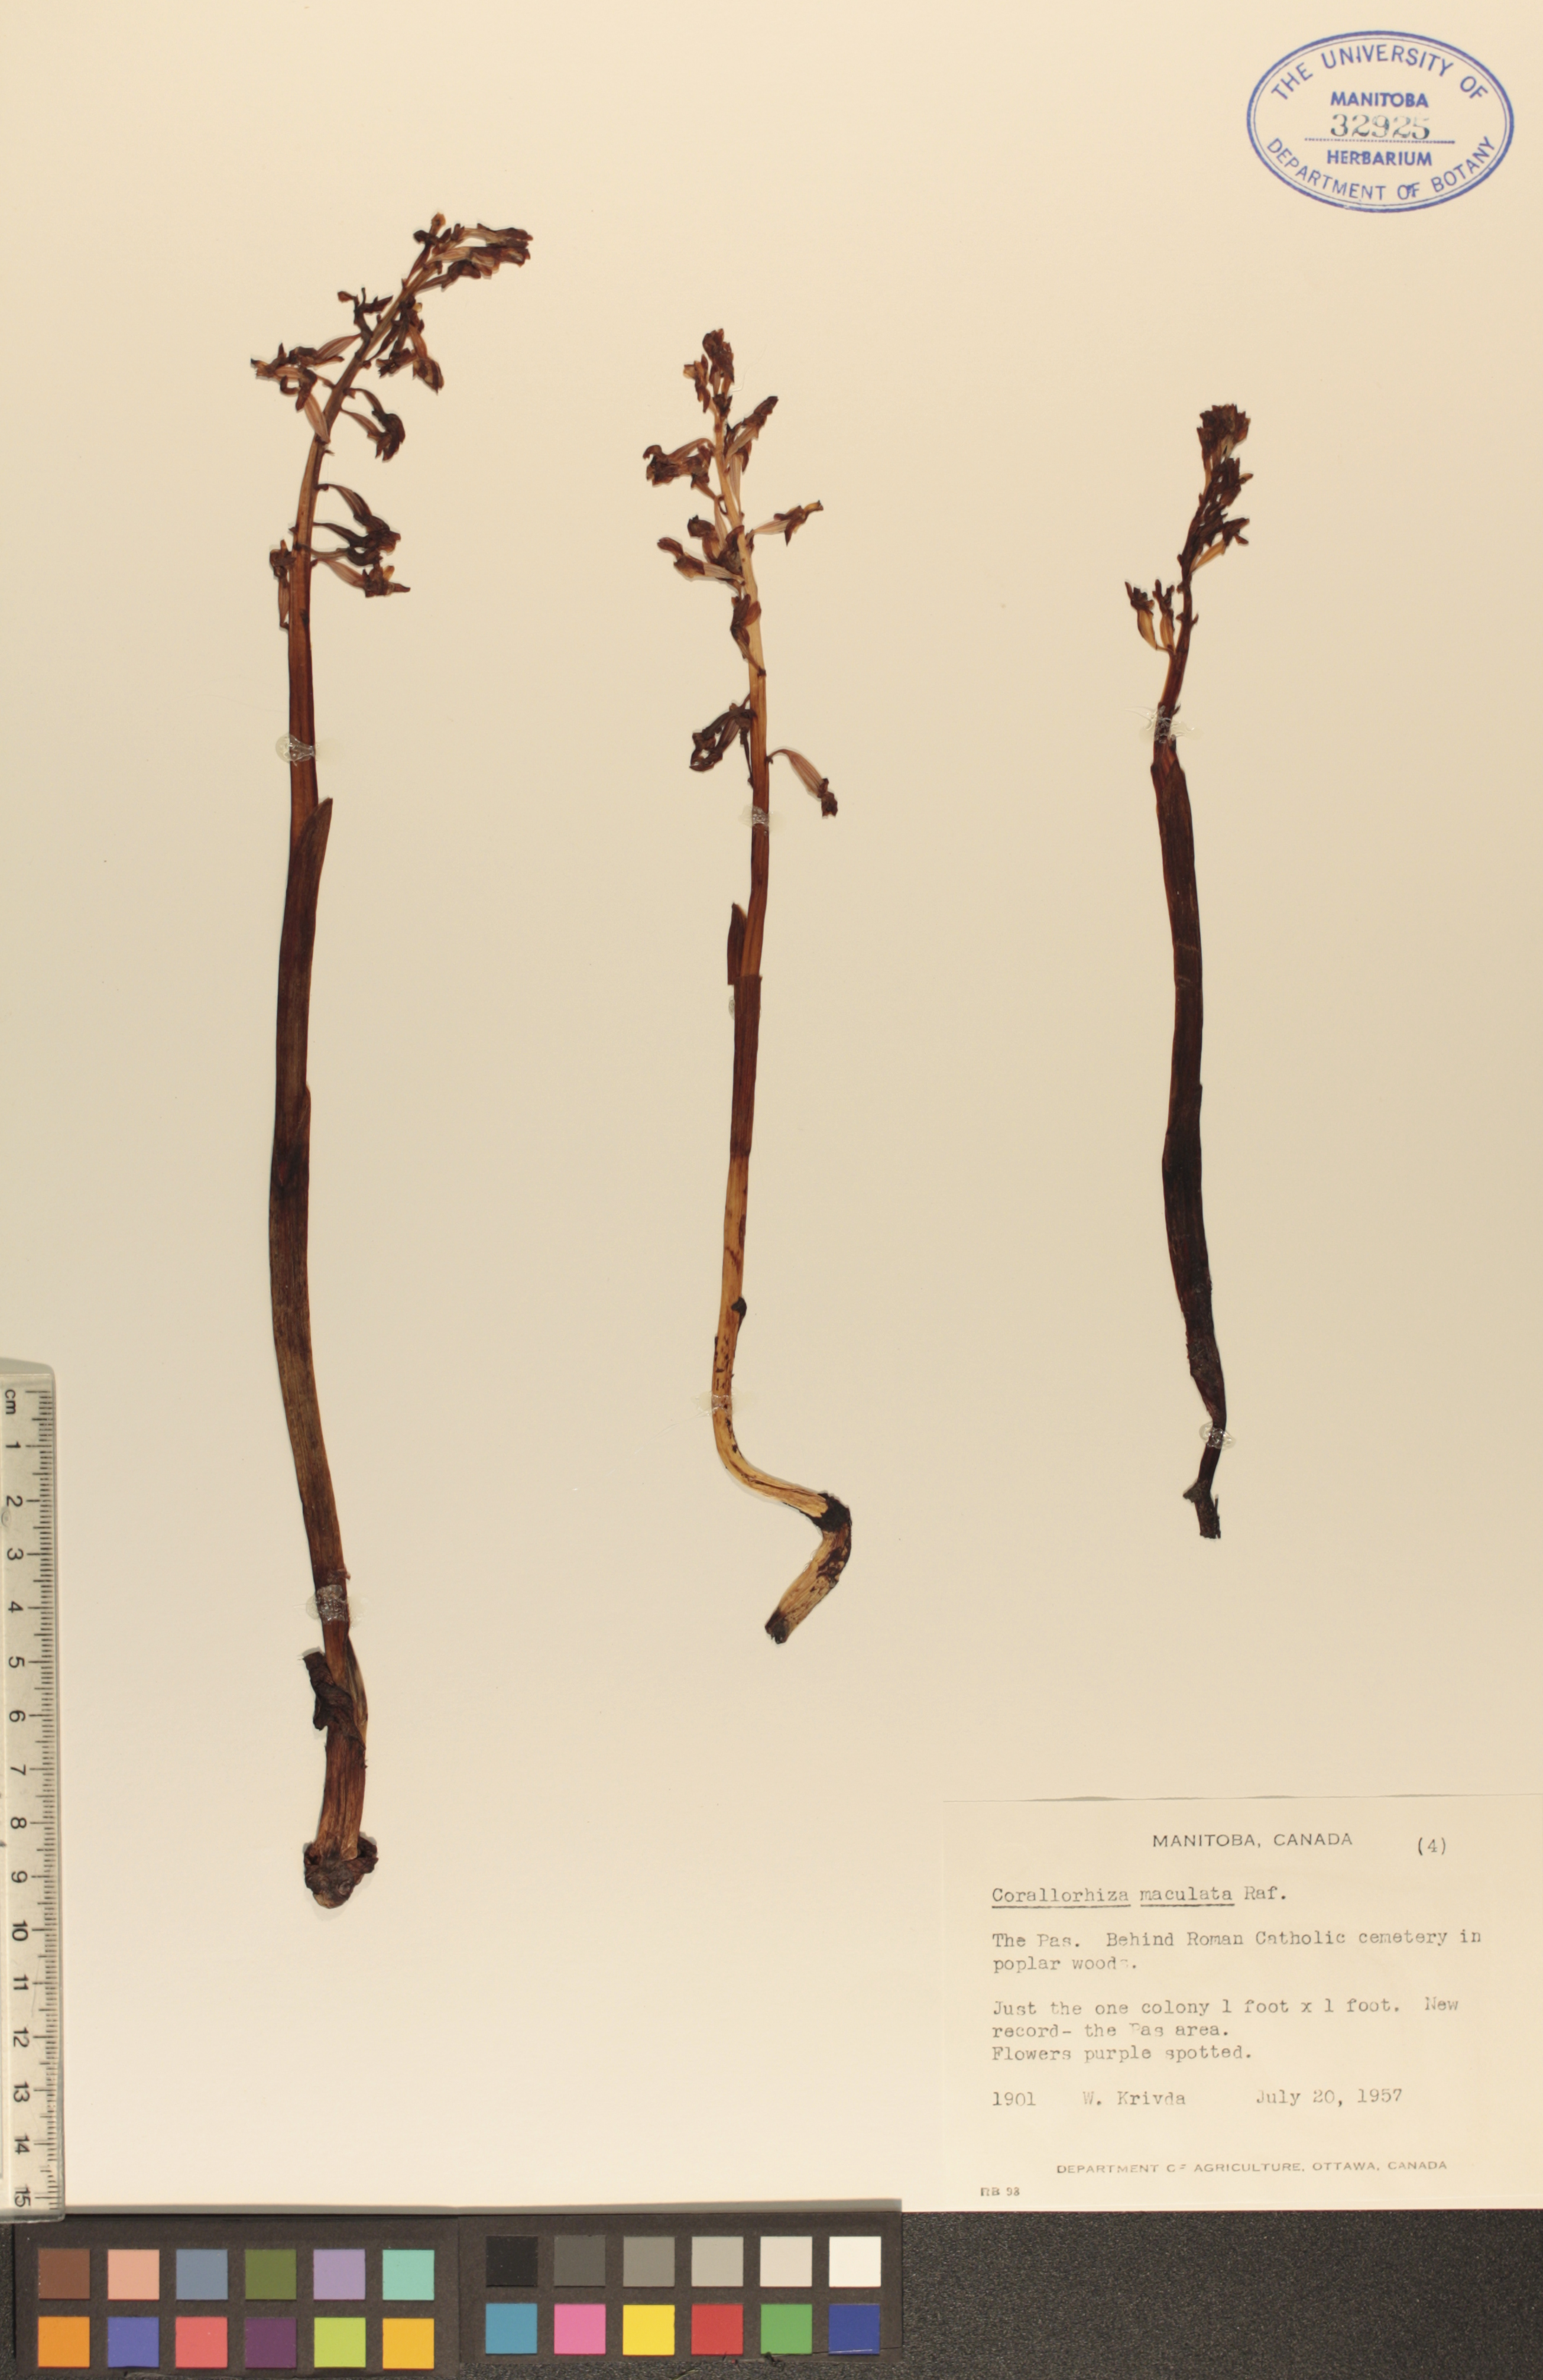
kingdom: Plantae
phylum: Tracheophyta
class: Liliopsida
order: Asparagales
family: Orchidaceae
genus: Corallorhiza
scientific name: Corallorhiza maculata
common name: Spotted coralroot
